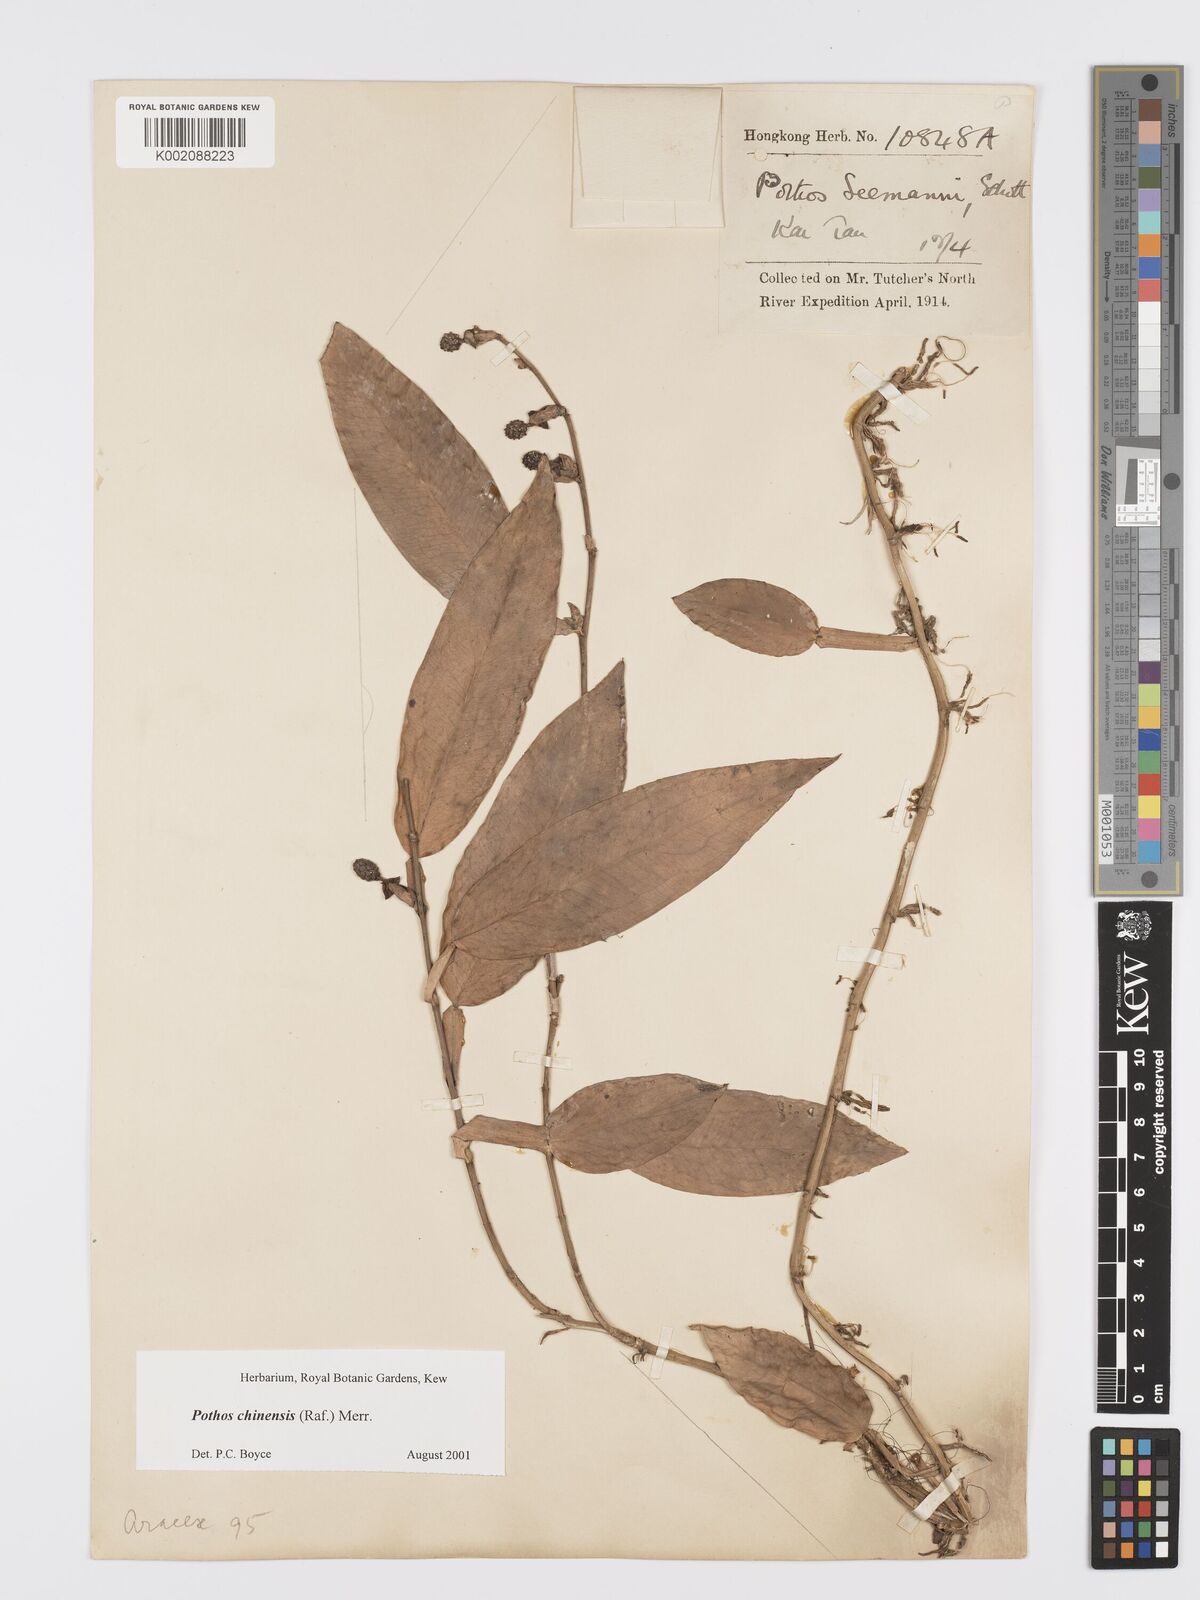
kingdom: Plantae
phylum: Tracheophyta
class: Liliopsida
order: Alismatales
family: Araceae
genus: Pothos
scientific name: Pothos chinensis
